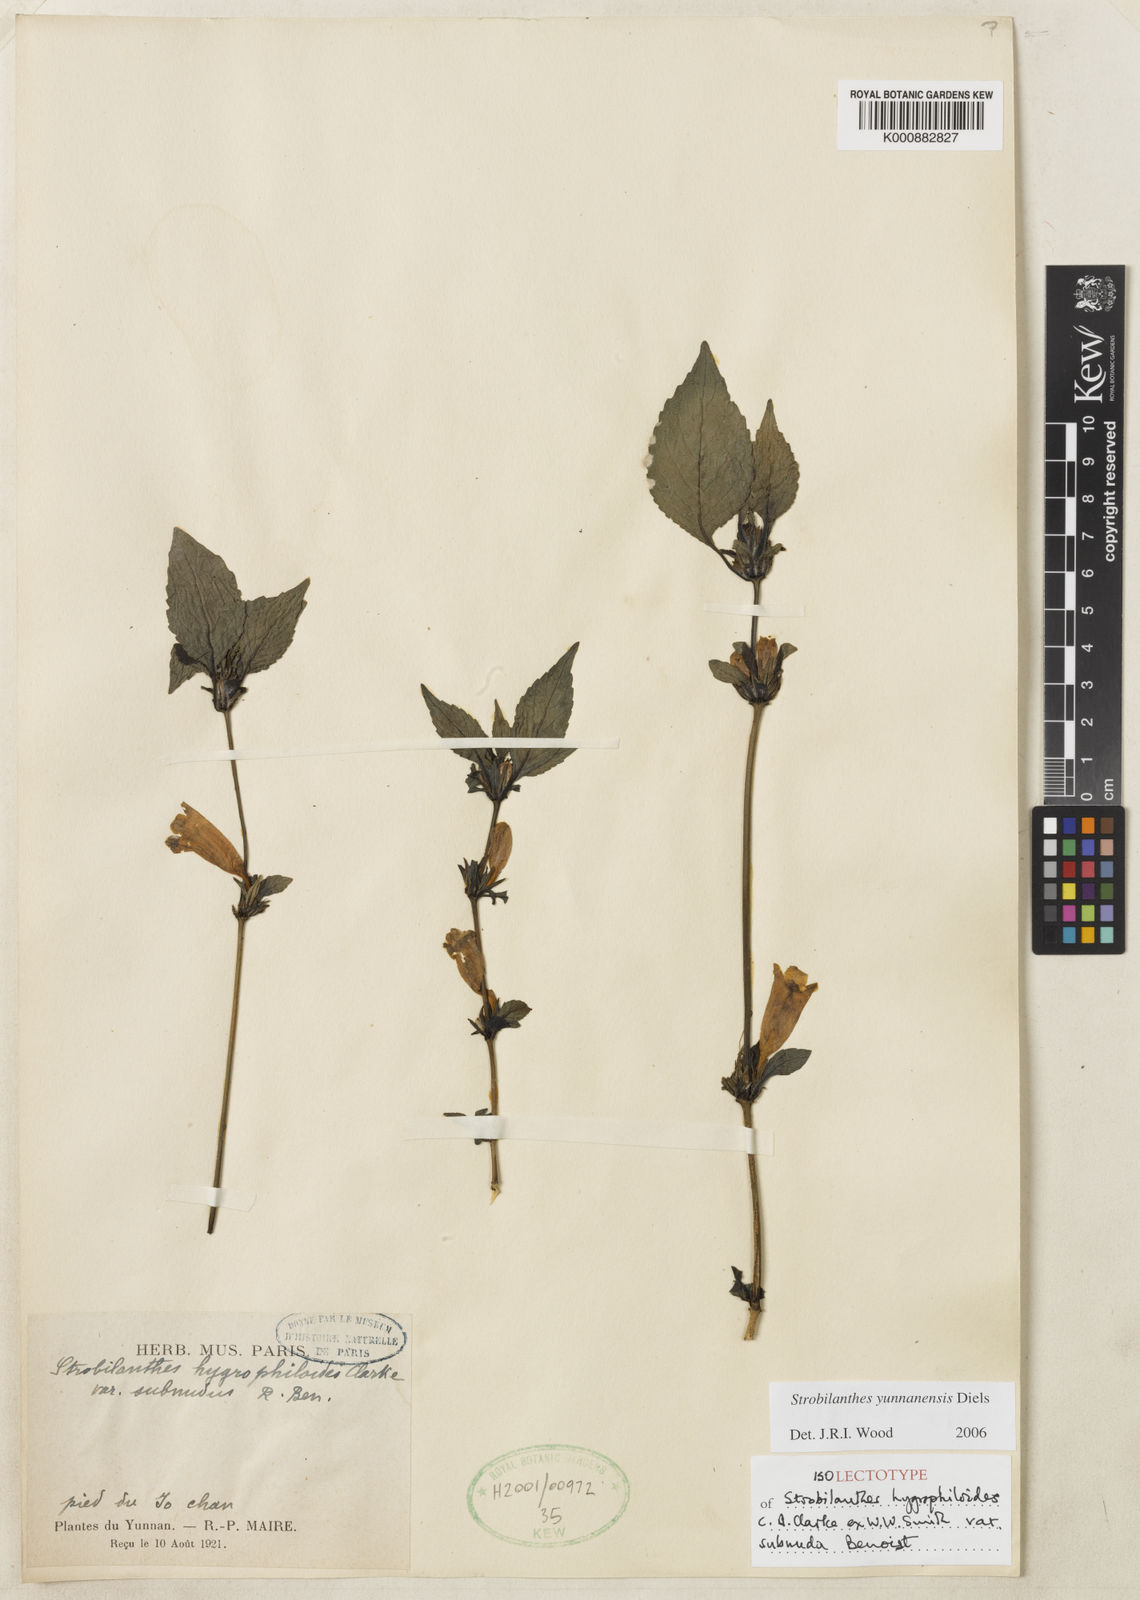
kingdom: Plantae
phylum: Tracheophyta
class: Magnoliopsida
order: Lamiales
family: Acanthaceae
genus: Strobilanthes
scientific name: Strobilanthes yunnanensis
